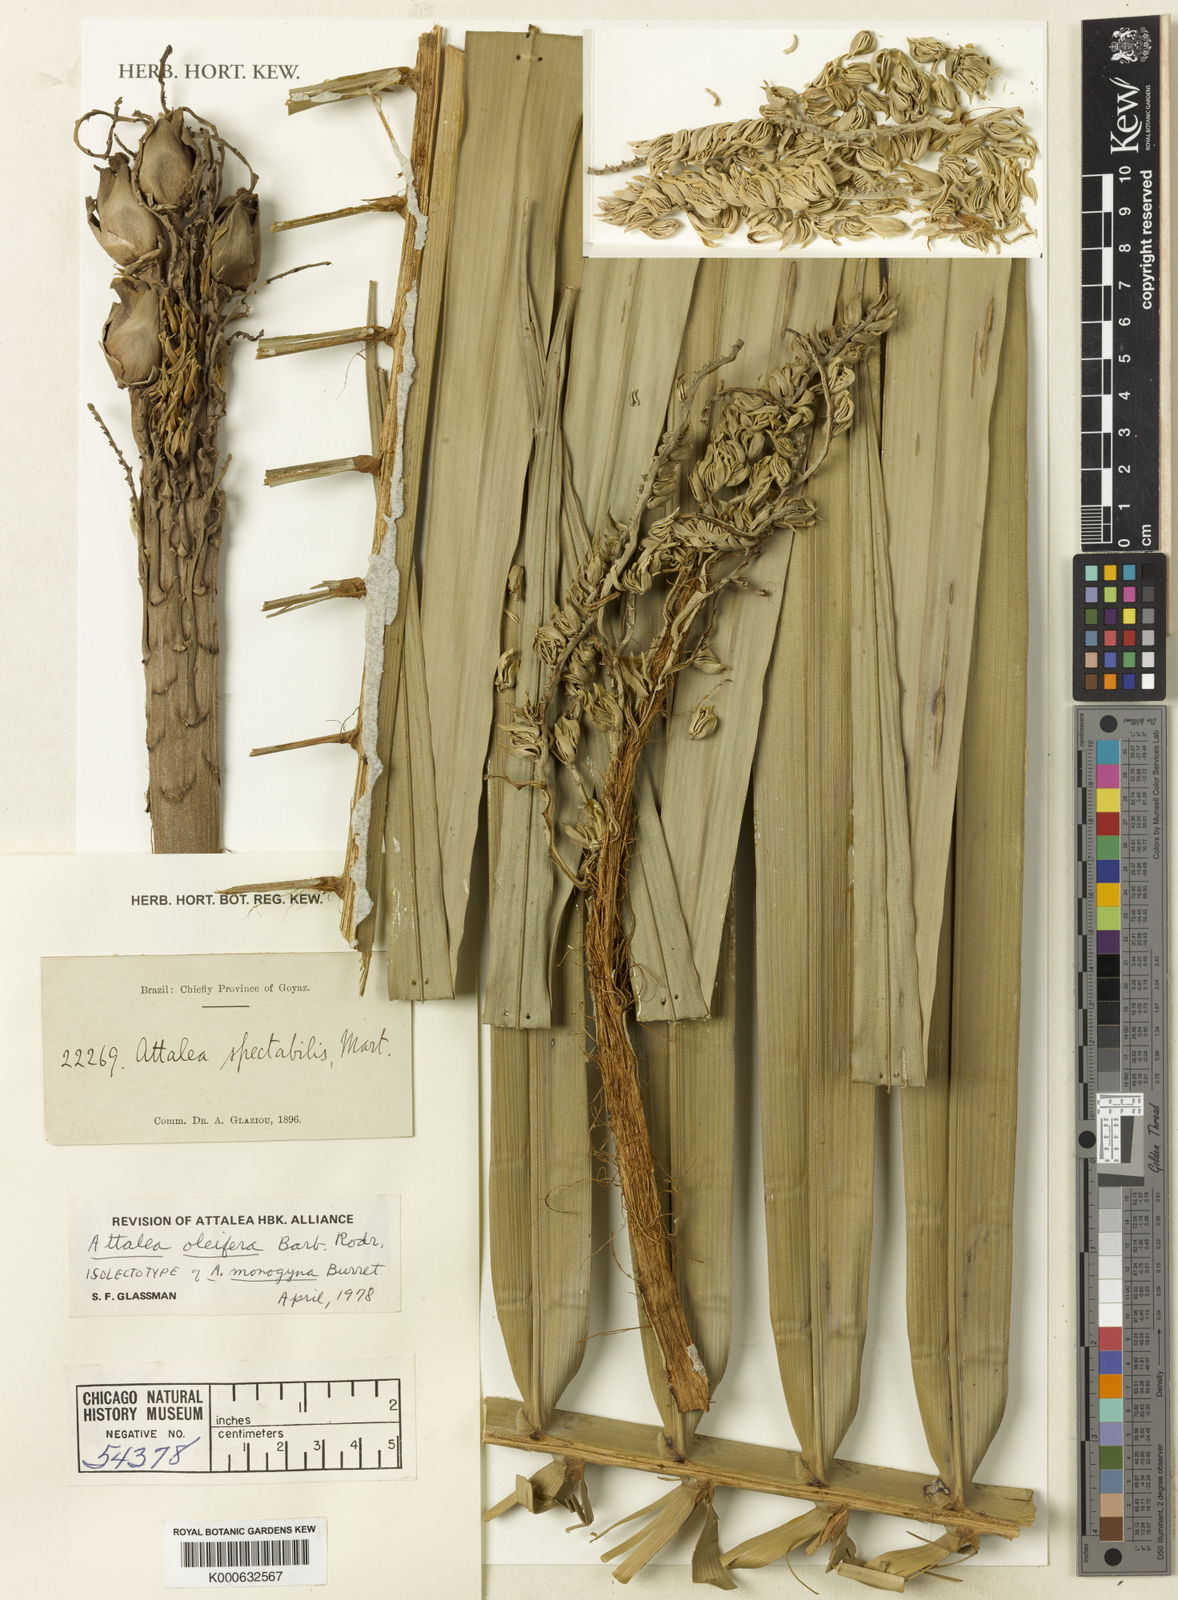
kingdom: Plantae
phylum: Tracheophyta
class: Liliopsida
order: Arecales
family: Arecaceae
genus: Attalea
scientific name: Attalea oleifera
